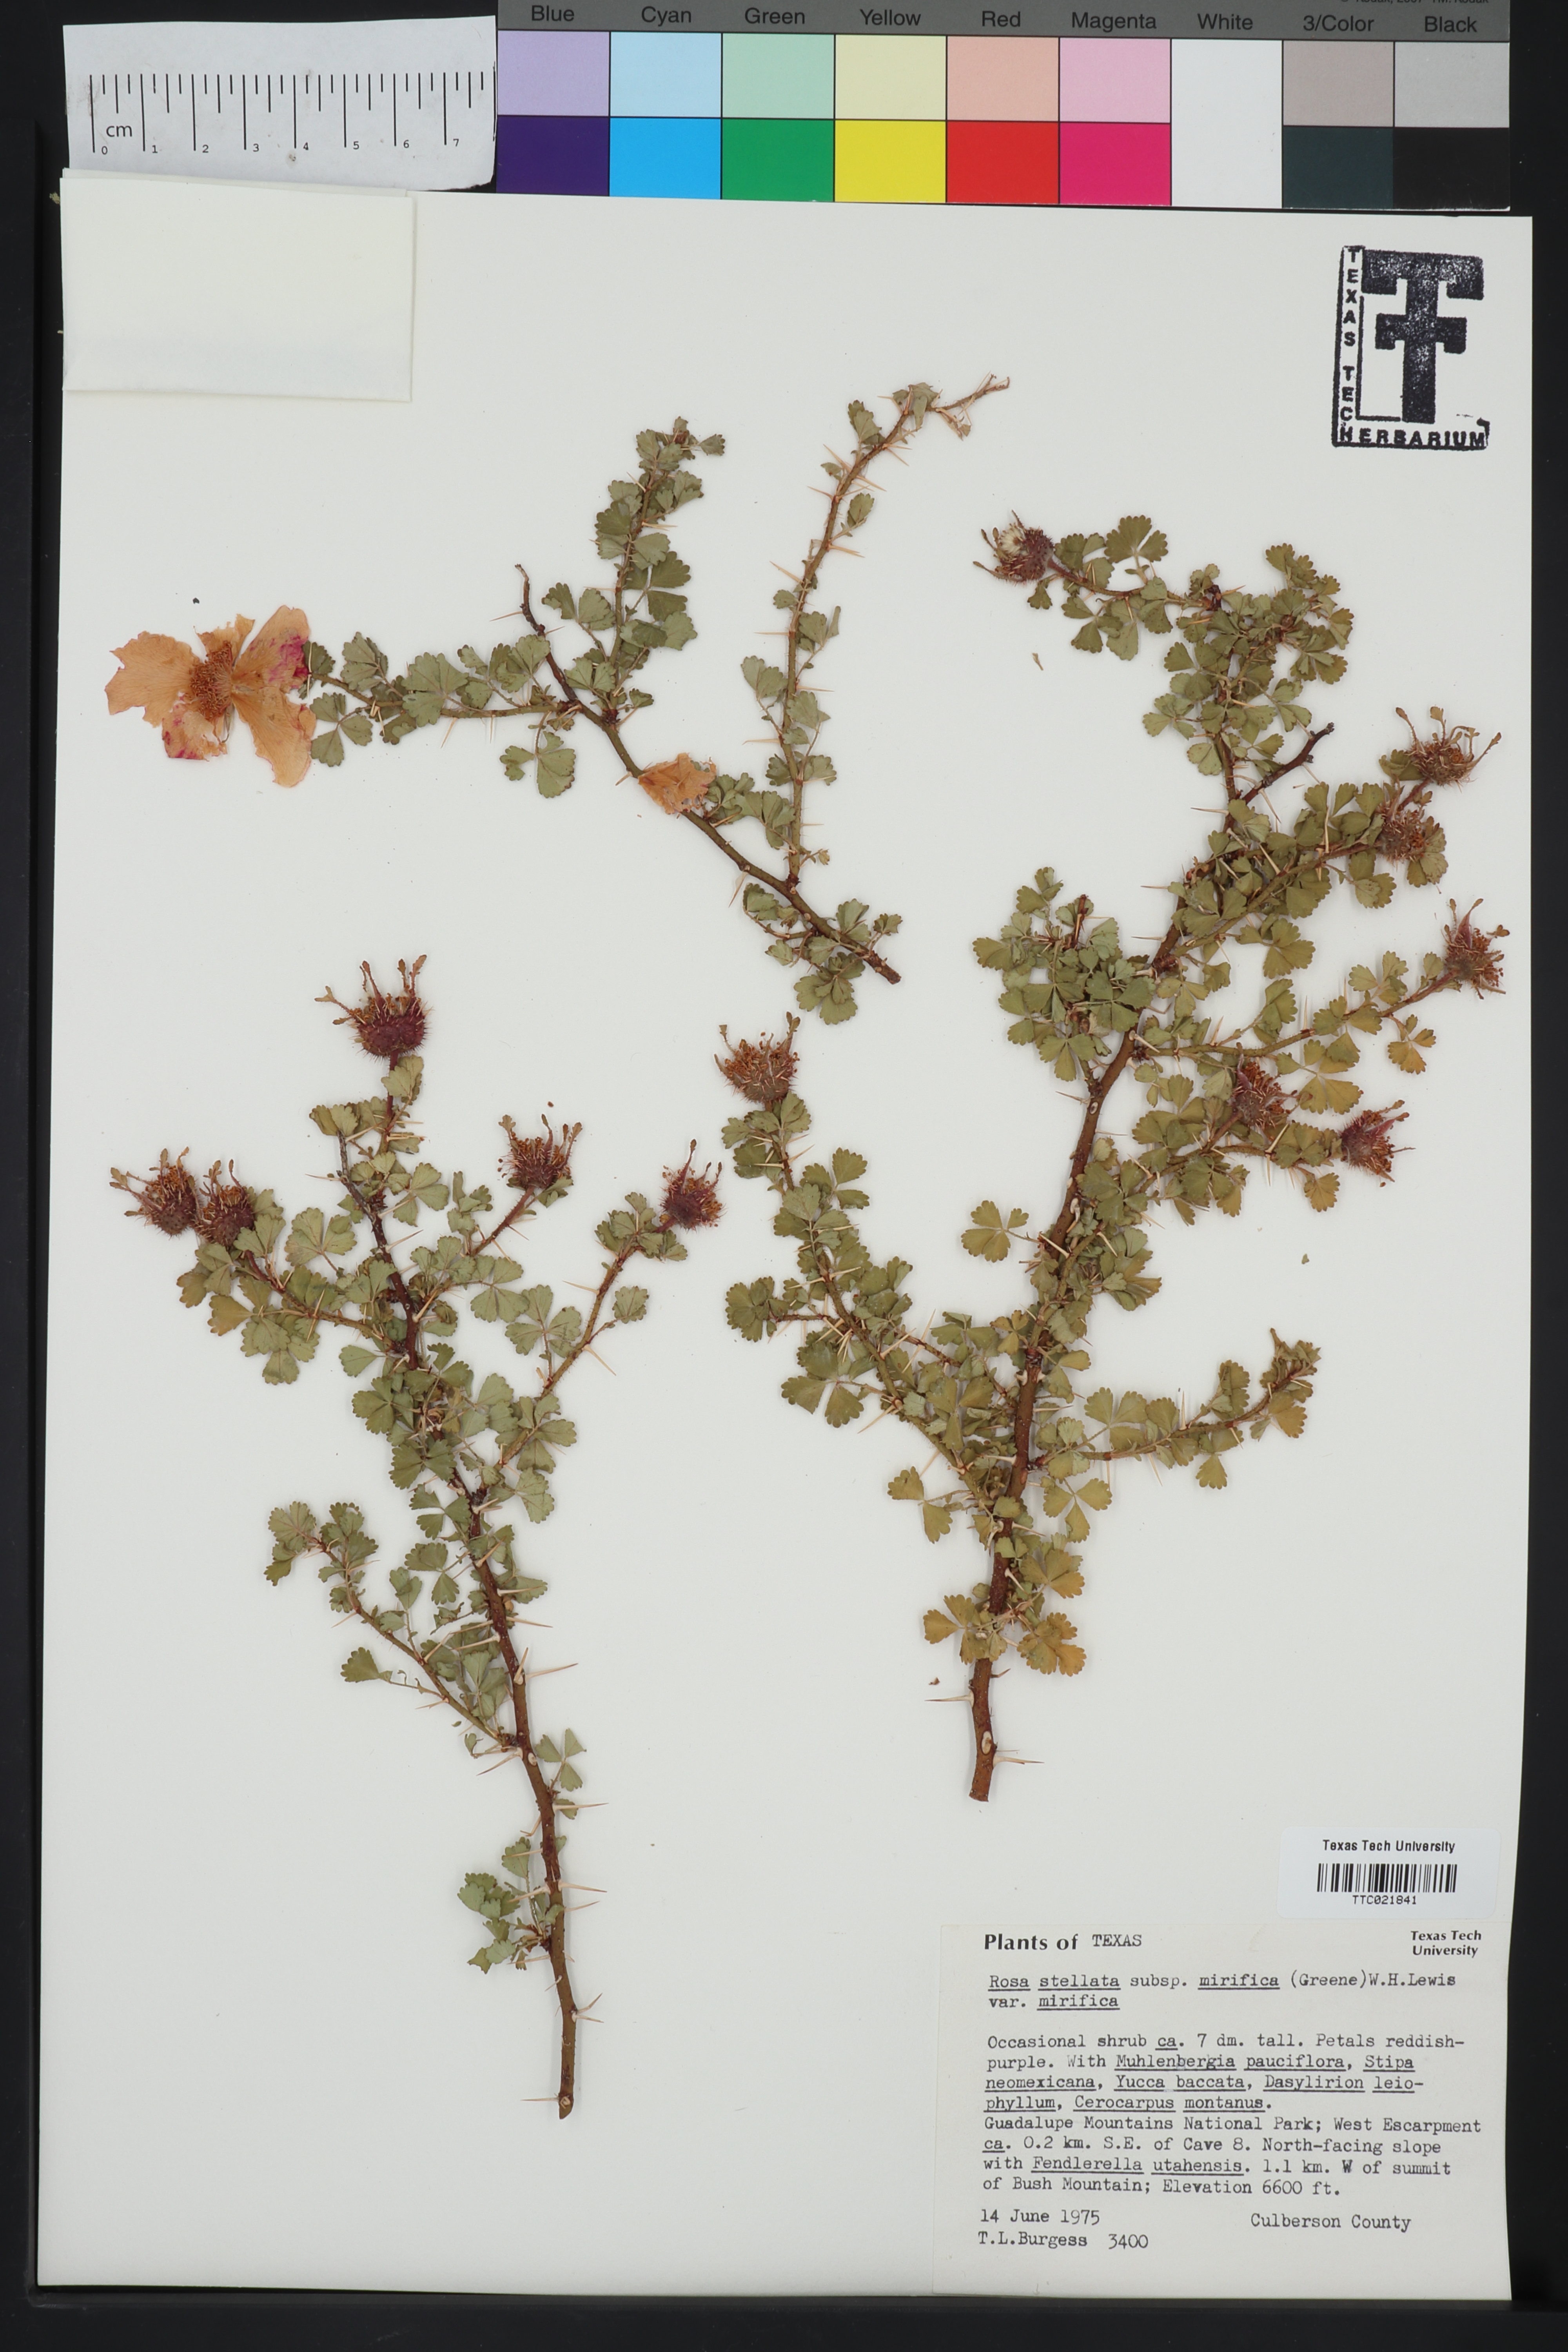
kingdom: Plantae
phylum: Tracheophyta
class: Magnoliopsida
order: Rosales
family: Rosaceae
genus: Rosa
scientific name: Rosa stellata
